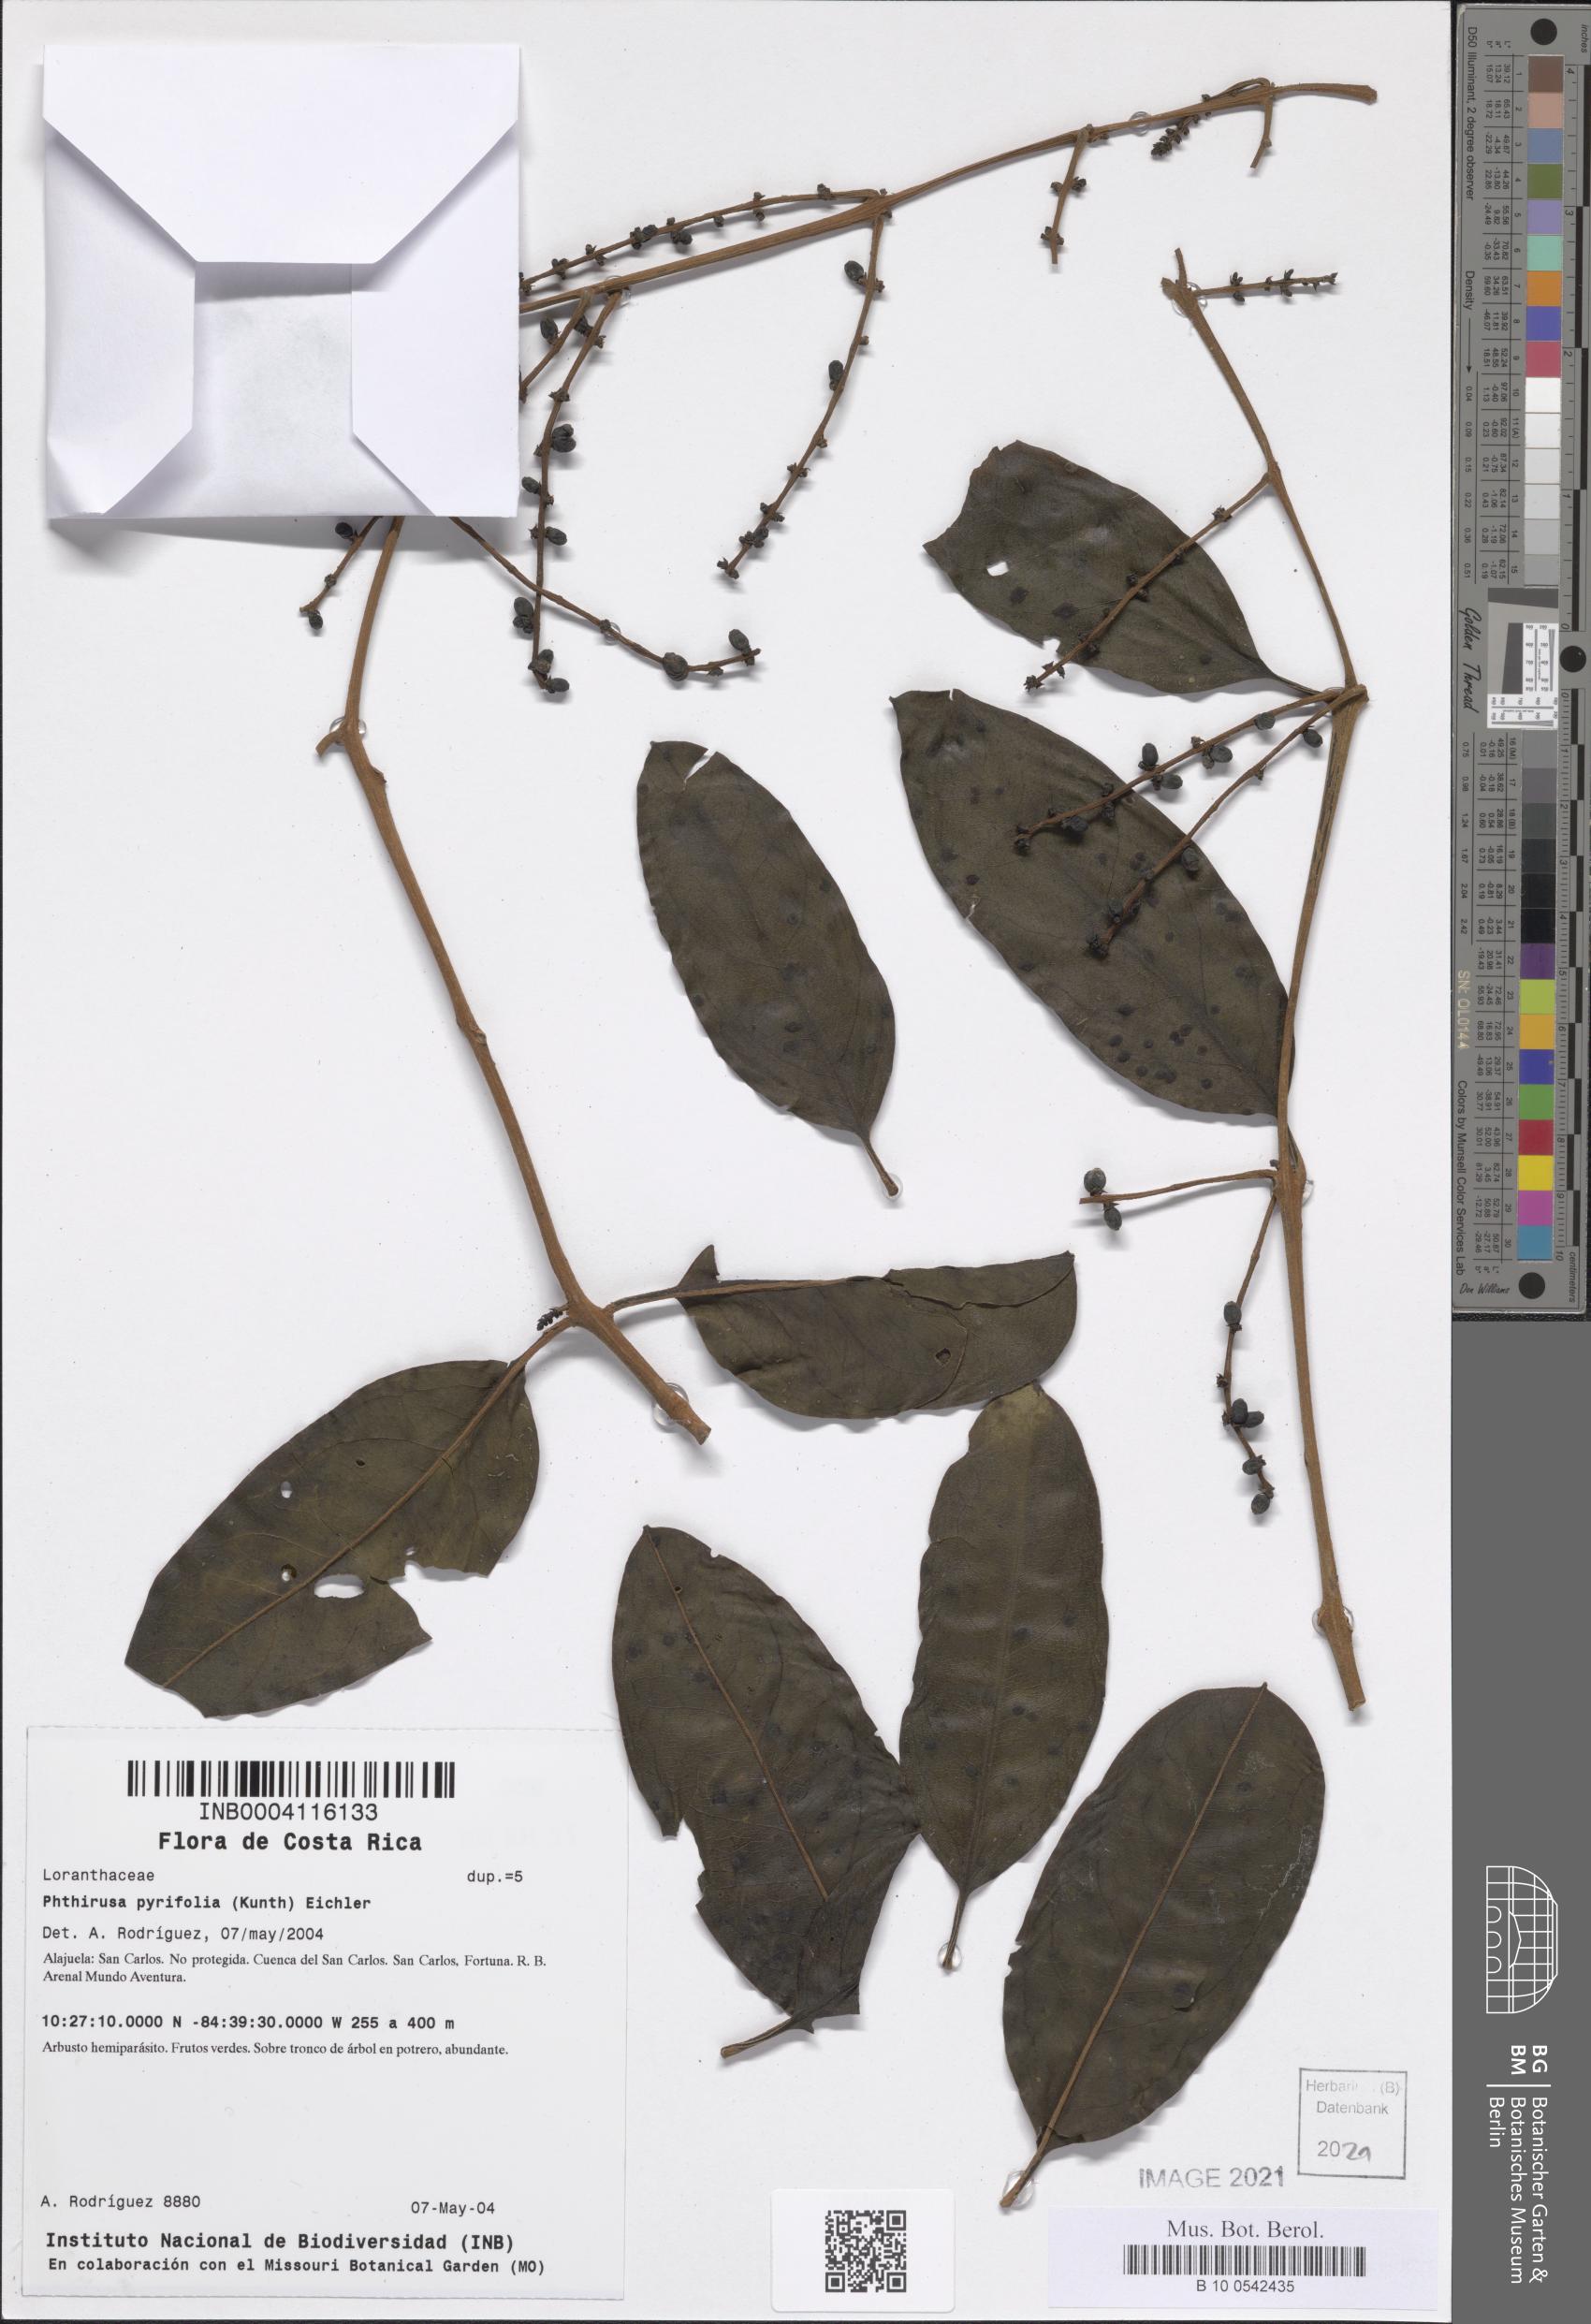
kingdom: Plantae
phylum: Tracheophyta
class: Magnoliopsida
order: Santalales
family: Loranthaceae
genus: Passovia
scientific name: Passovia pyrifolia
